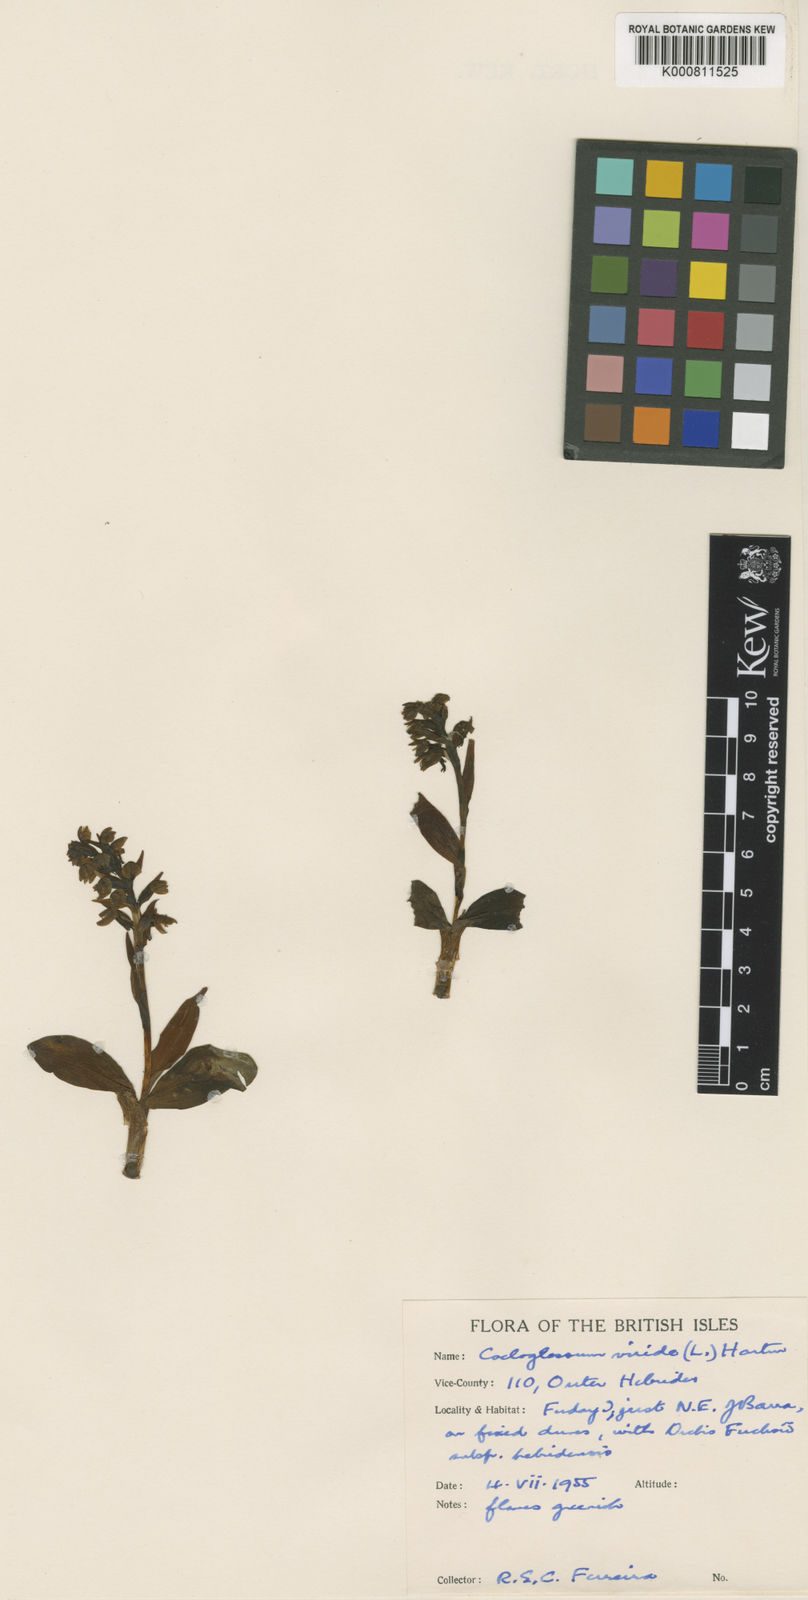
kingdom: Plantae
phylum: Tracheophyta
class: Liliopsida
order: Asparagales
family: Orchidaceae
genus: Dactylorhiza
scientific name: Dactylorhiza viridis
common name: Longbract frog orchid
